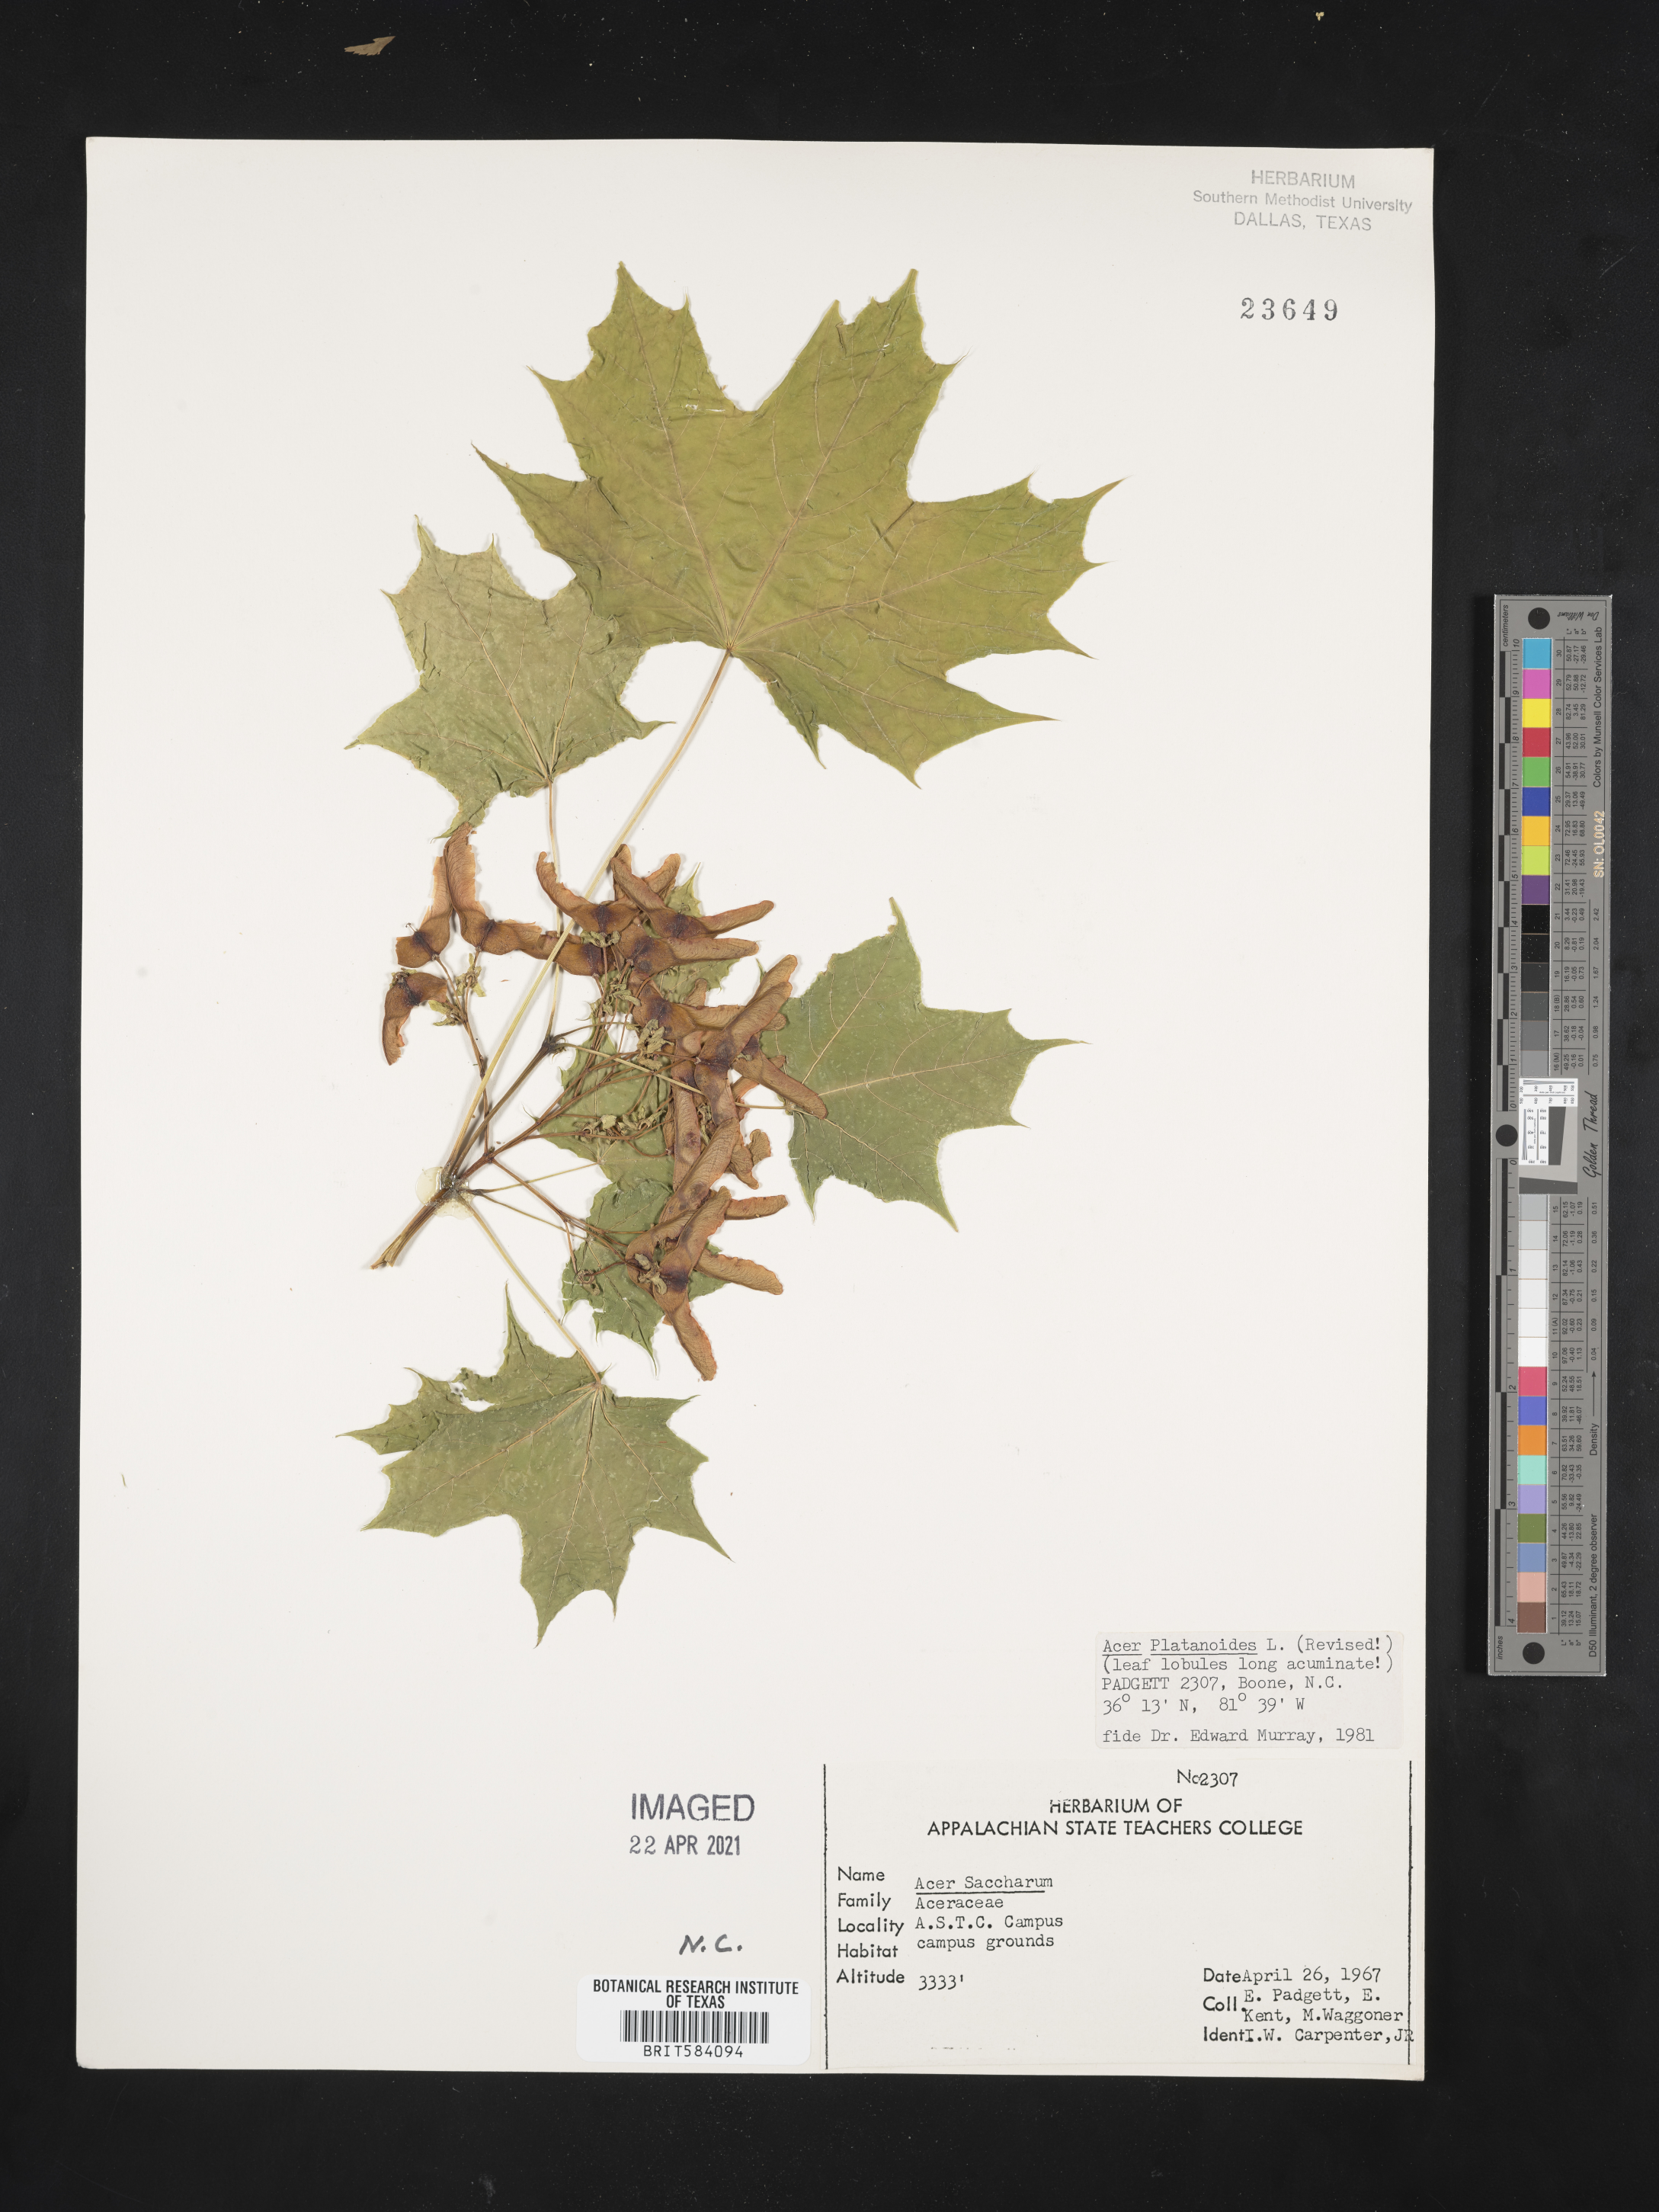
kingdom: Plantae
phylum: Tracheophyta
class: Magnoliopsida
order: Sapindales
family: Sapindaceae
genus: Acer
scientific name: Acer platanoides
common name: Norway maple
